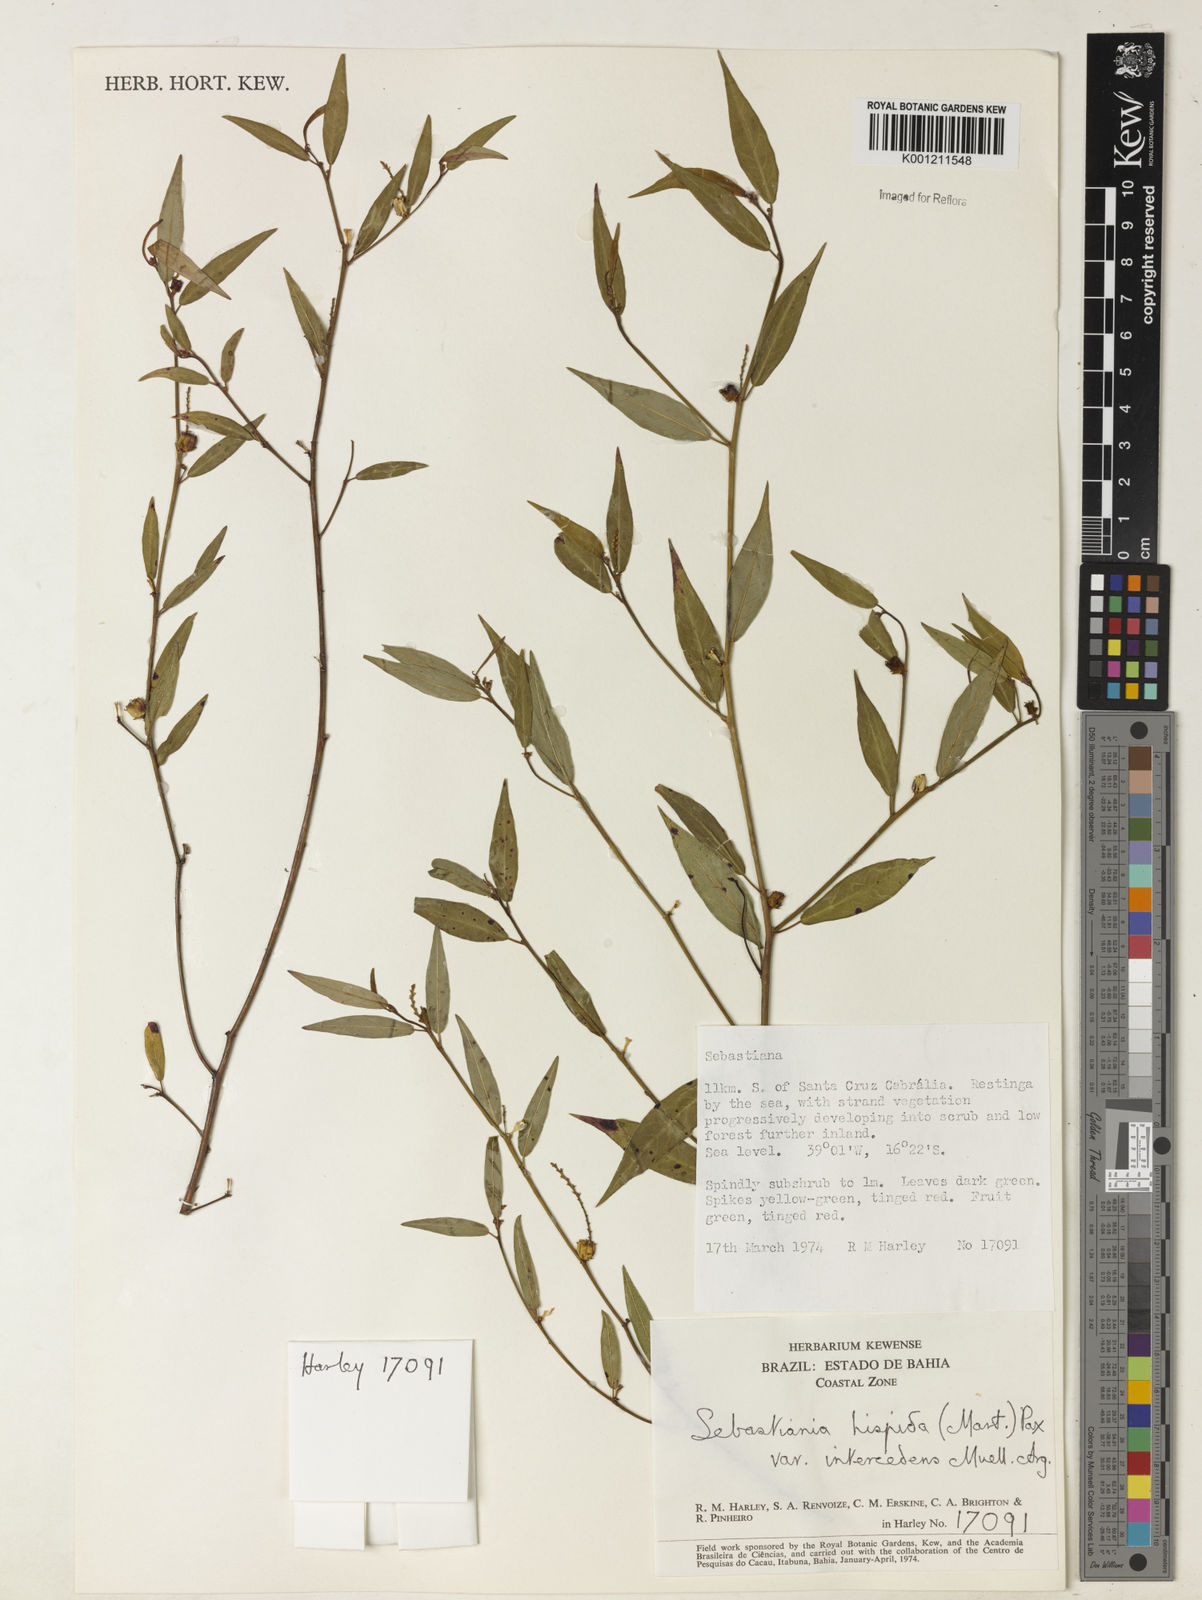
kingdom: Plantae
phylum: Tracheophyta
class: Magnoliopsida
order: Malpighiales
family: Euphorbiaceae
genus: Microstachys
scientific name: Microstachys hispida
